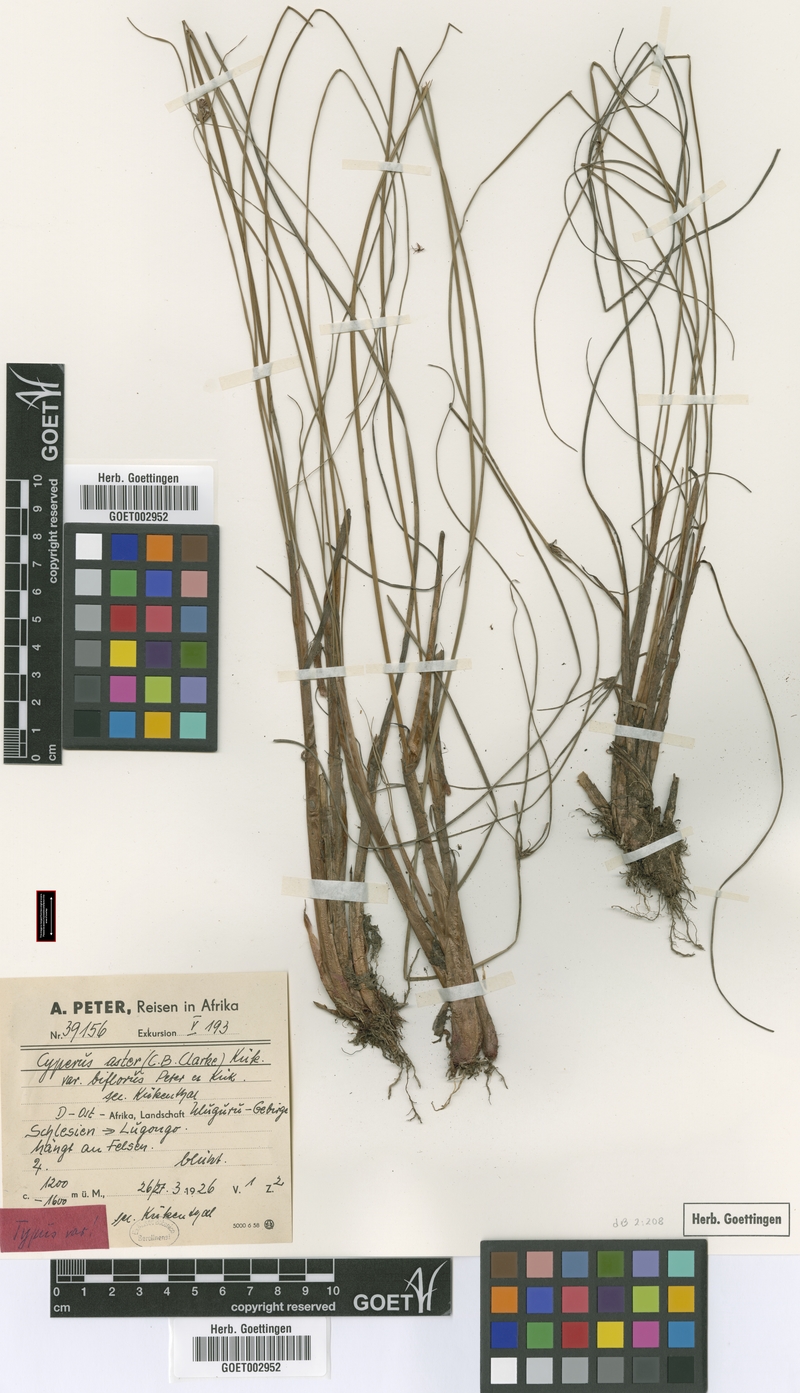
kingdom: Plantae
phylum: Tracheophyta
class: Liliopsida
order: Poales
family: Cyperaceae
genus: Cyperus
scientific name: Cyperus aster
